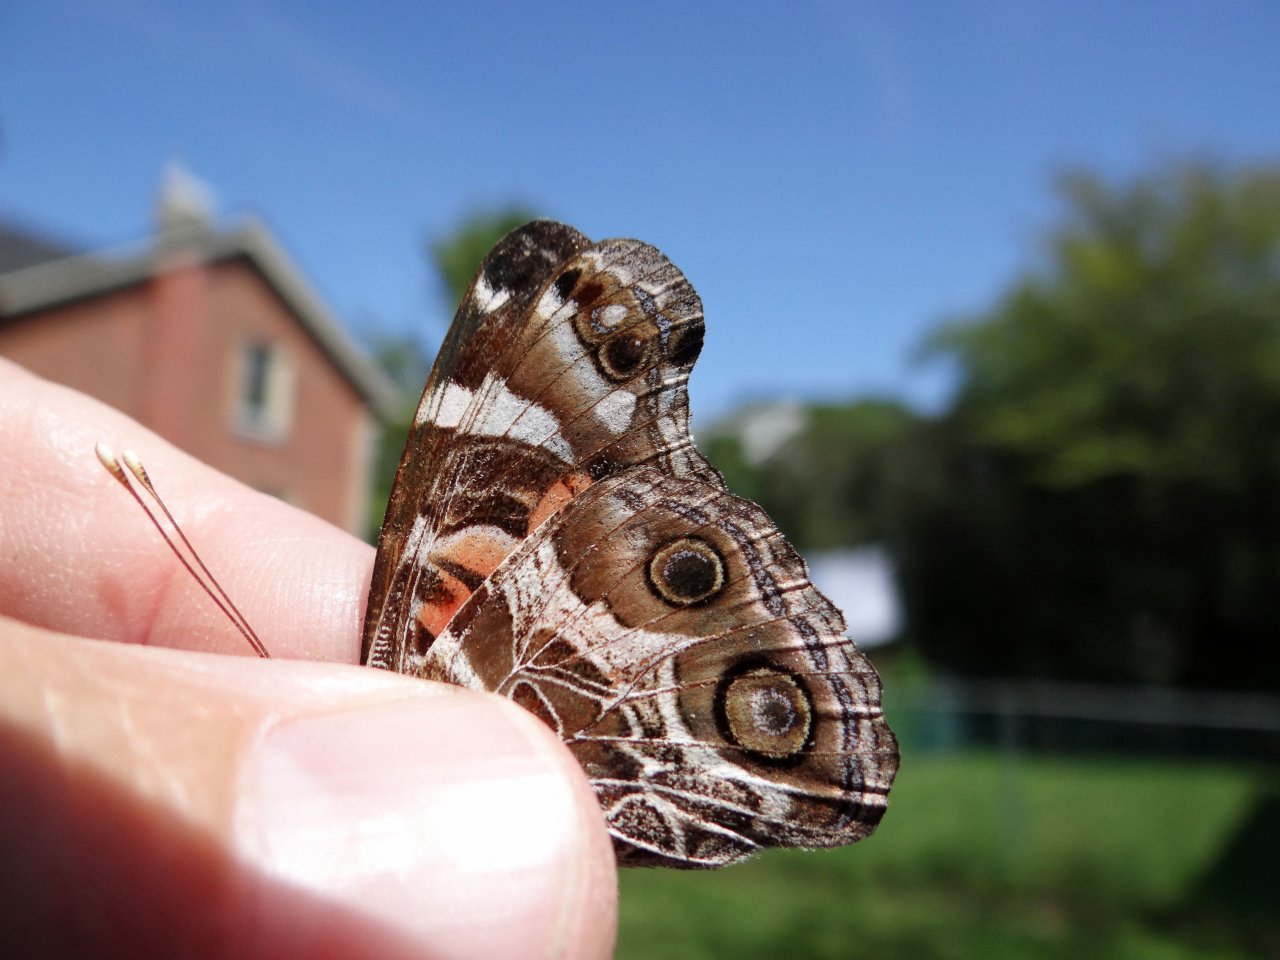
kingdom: Animalia
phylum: Arthropoda
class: Insecta
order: Lepidoptera
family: Nymphalidae
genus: Vanessa
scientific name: Vanessa virginiensis
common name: American Lady
